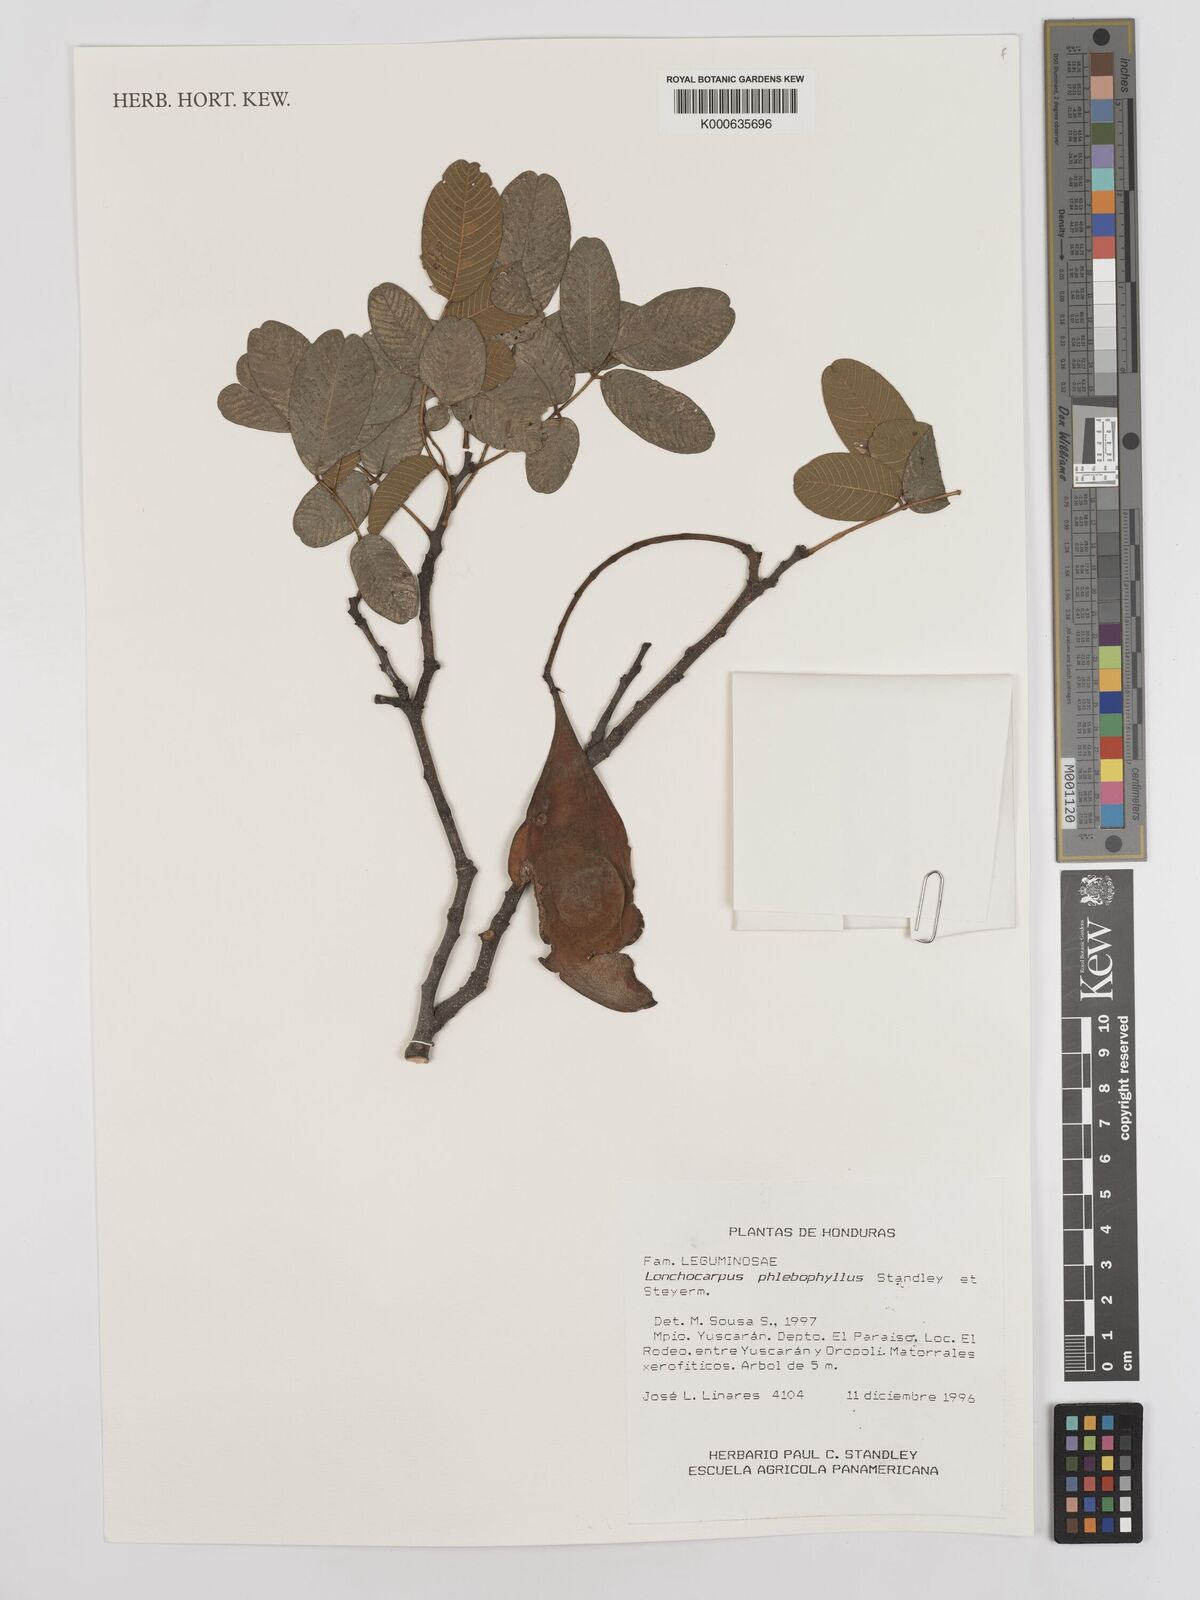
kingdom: Plantae
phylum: Tracheophyta
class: Magnoliopsida
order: Fabales
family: Fabaceae
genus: Lonchocarpus
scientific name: Lonchocarpus phlebophyllus
